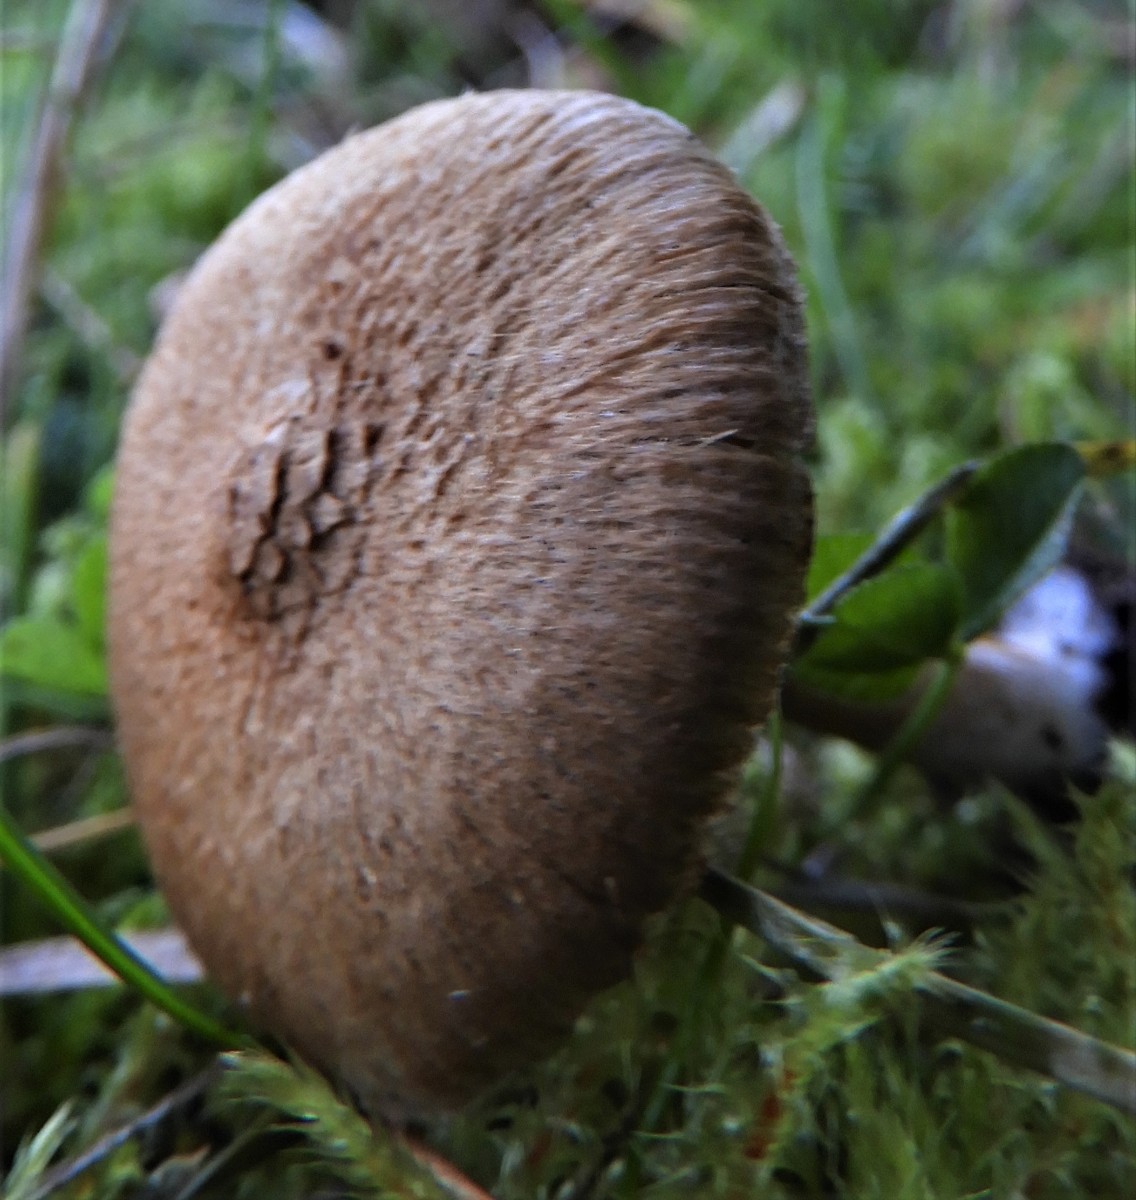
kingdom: Fungi
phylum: Basidiomycota
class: Agaricomycetes
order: Agaricales
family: Inocybaceae
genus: Inocybe
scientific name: Inocybe
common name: trævlhat
